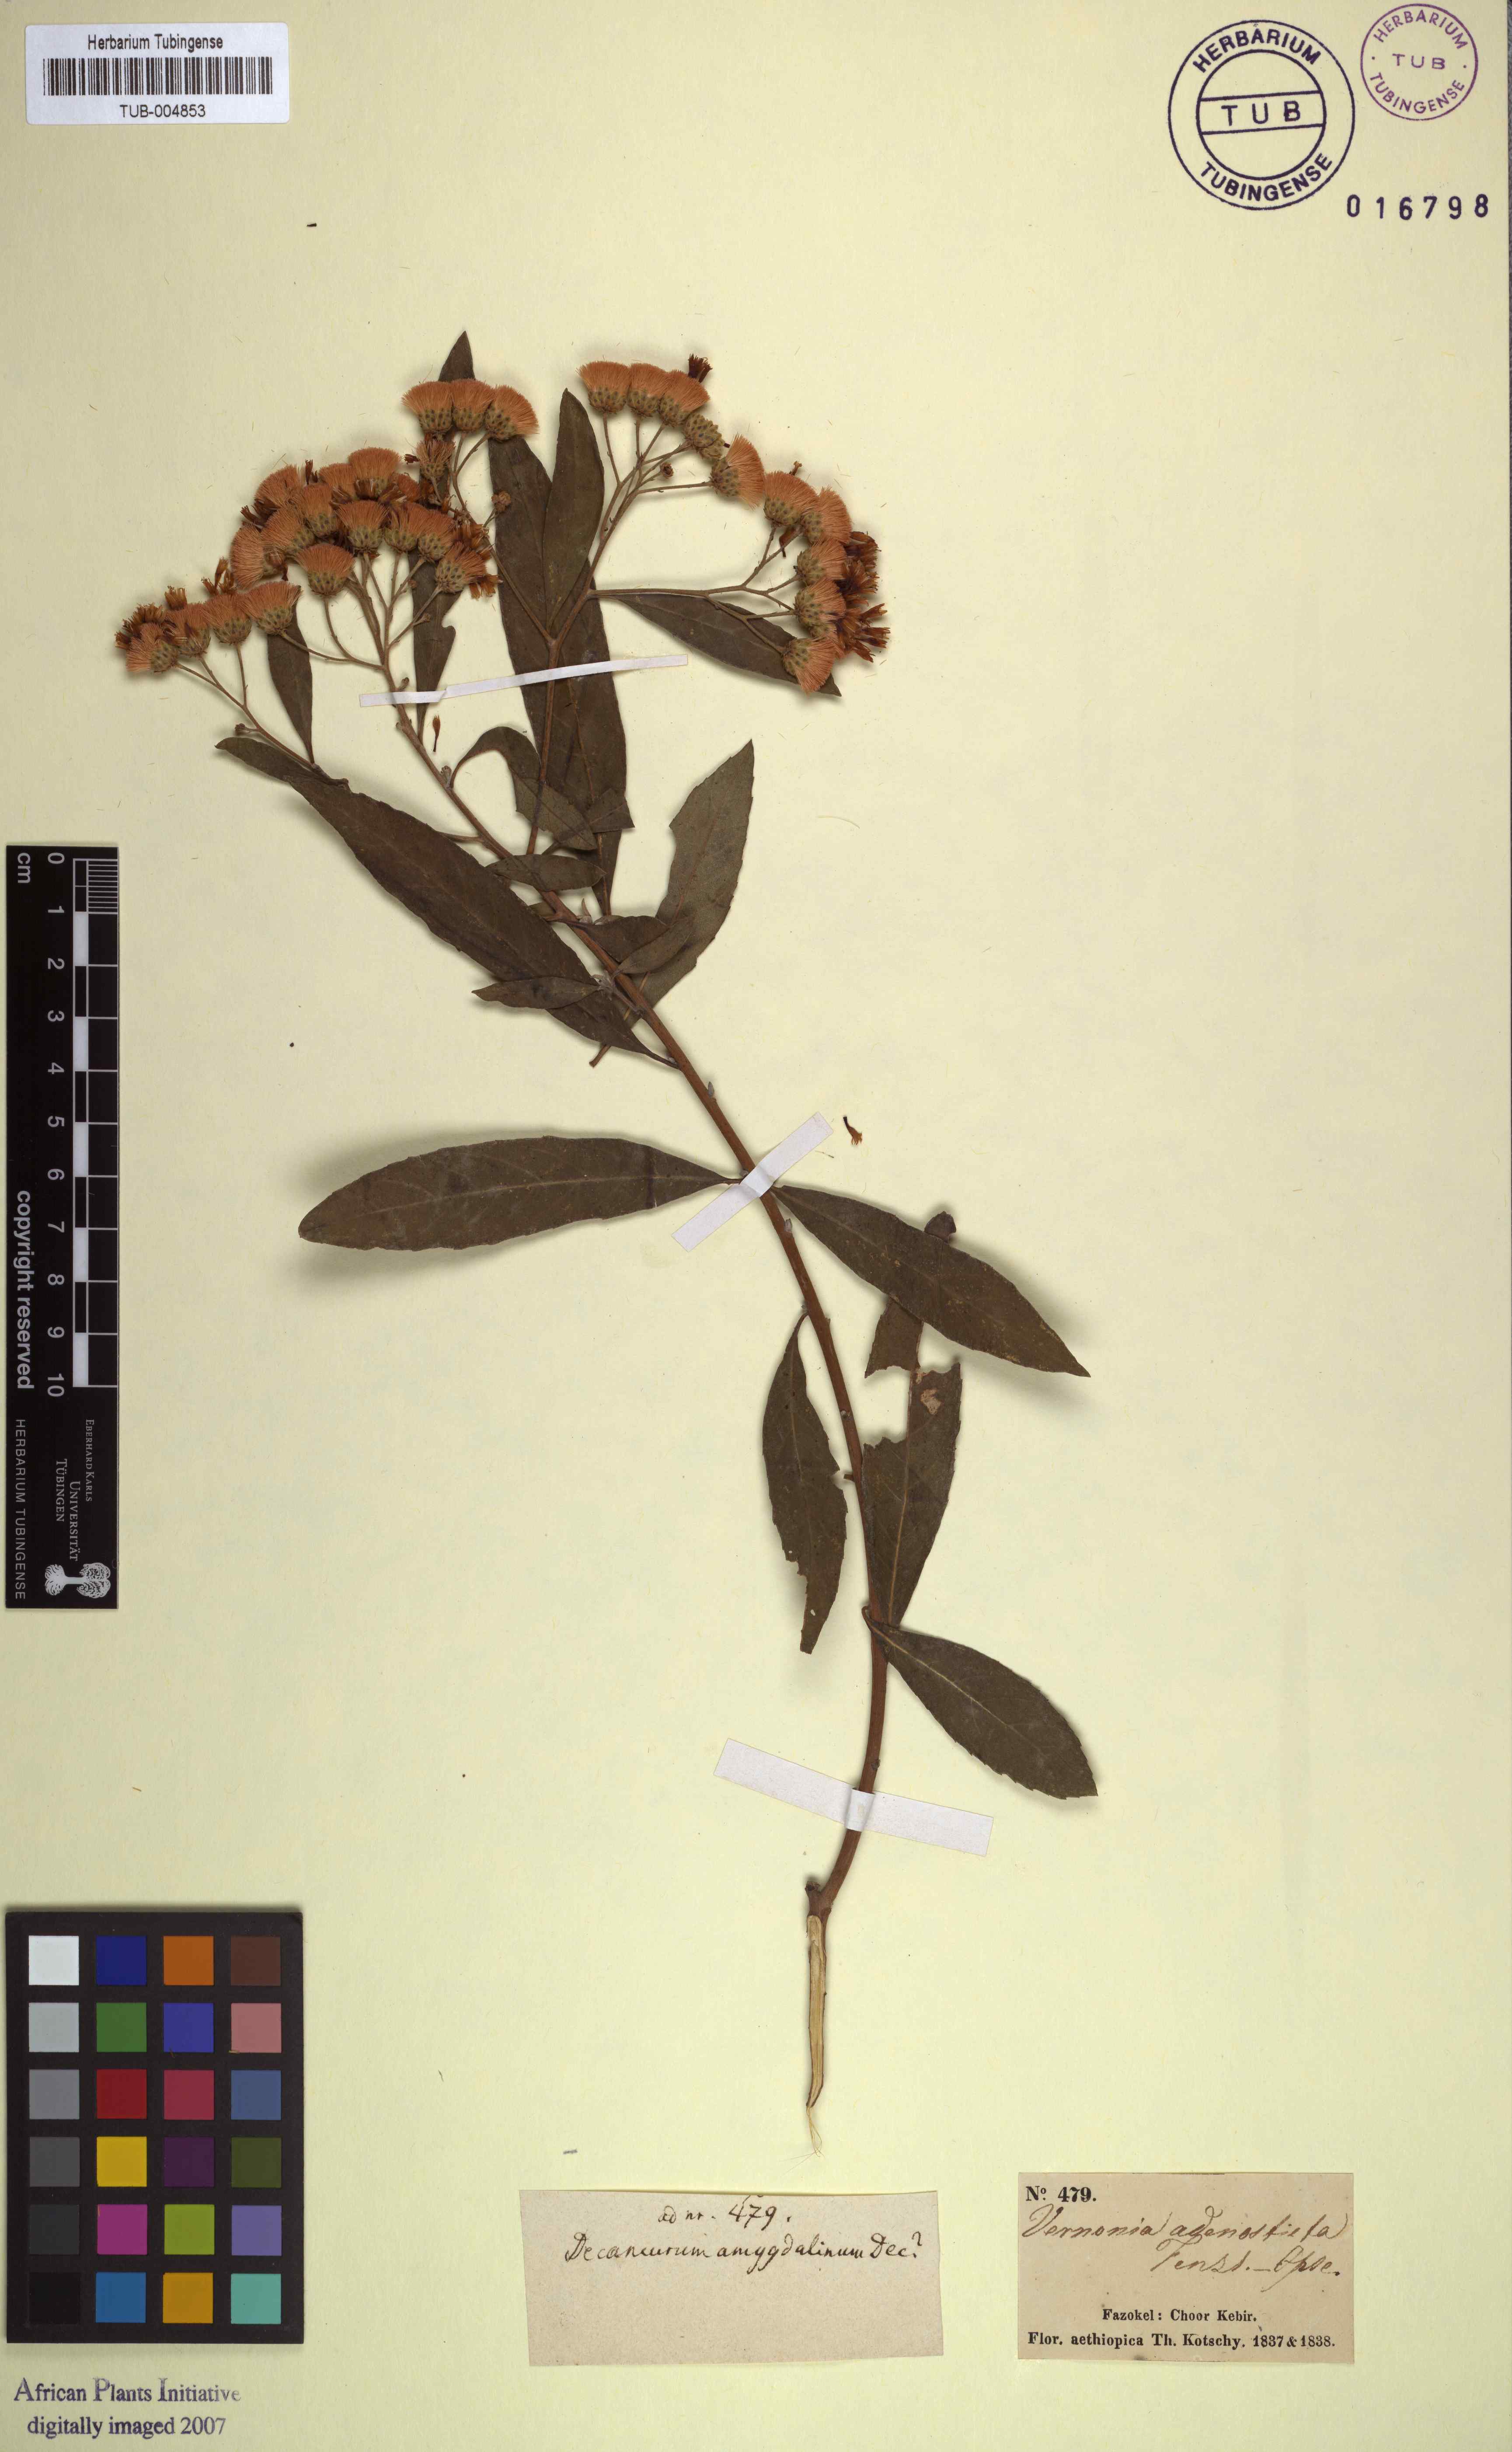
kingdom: Plantae
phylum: Tracheophyta
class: Magnoliopsida
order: Asterales
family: Asteraceae
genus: Gymnanthemum
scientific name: Gymnanthemum amygdalinum
